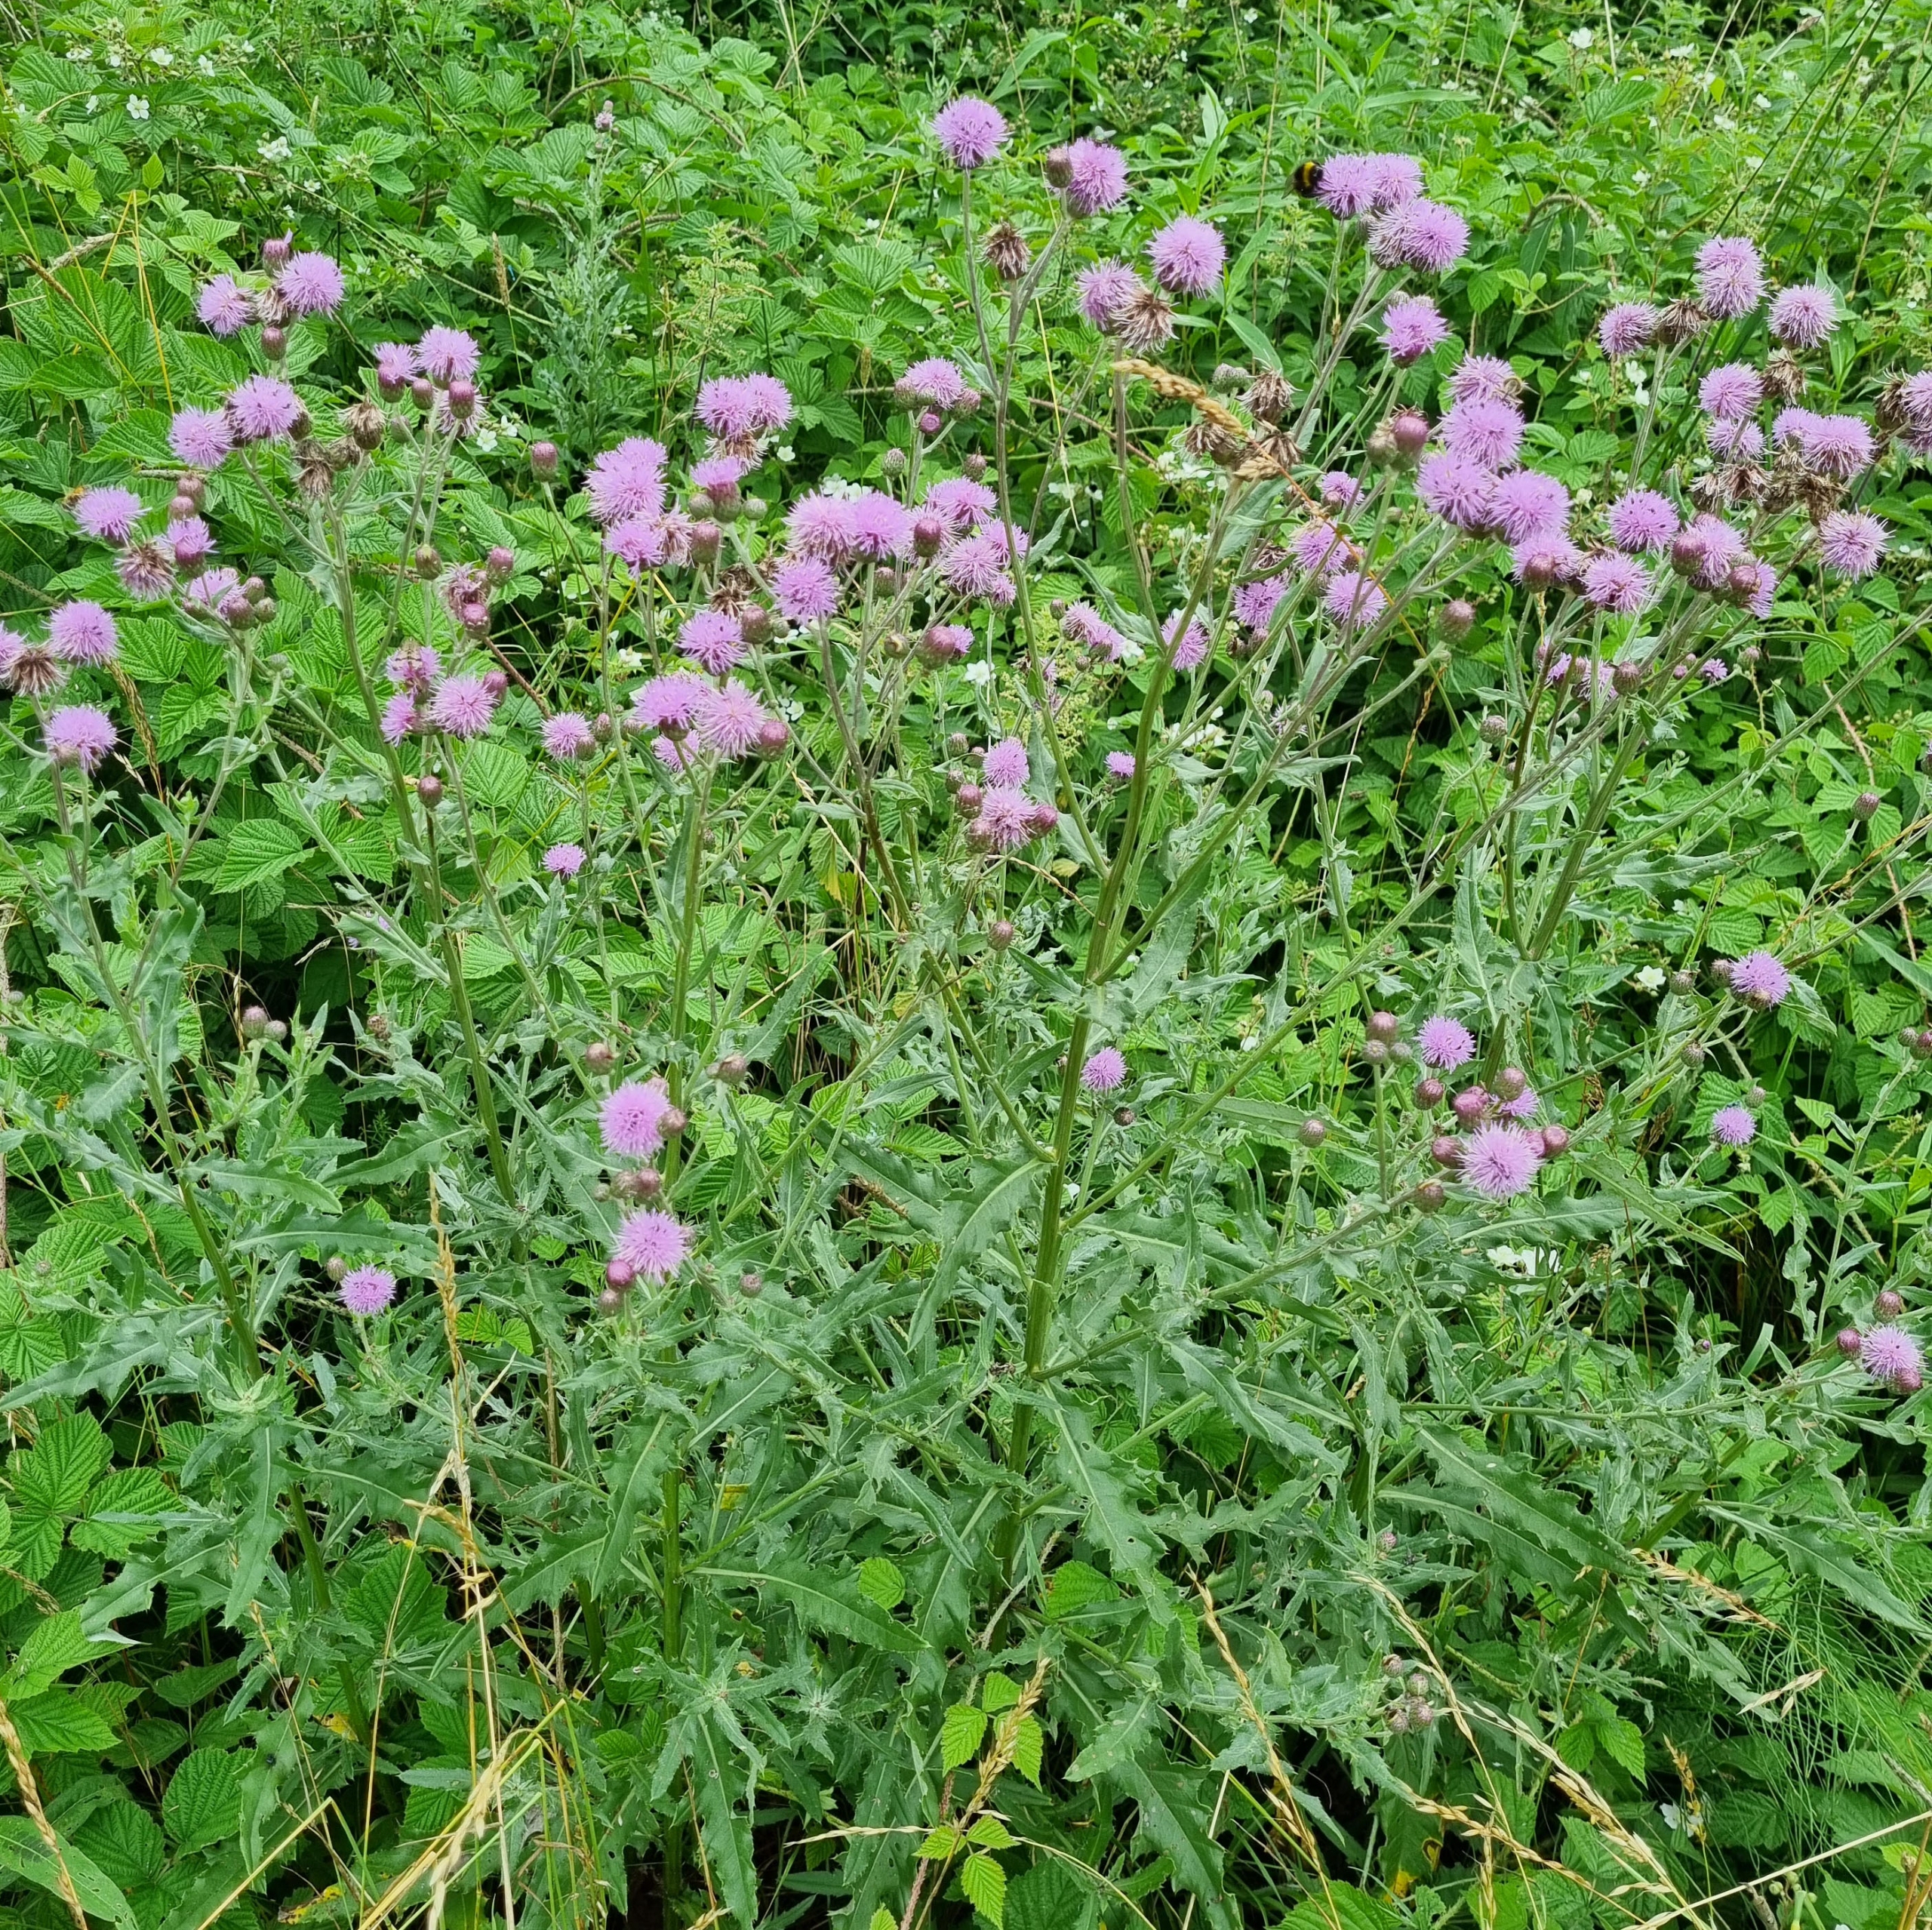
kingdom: Plantae
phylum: Tracheophyta
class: Magnoliopsida
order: Asterales
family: Asteraceae
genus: Cirsium
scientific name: Cirsium arvense
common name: Ager-tidsel
